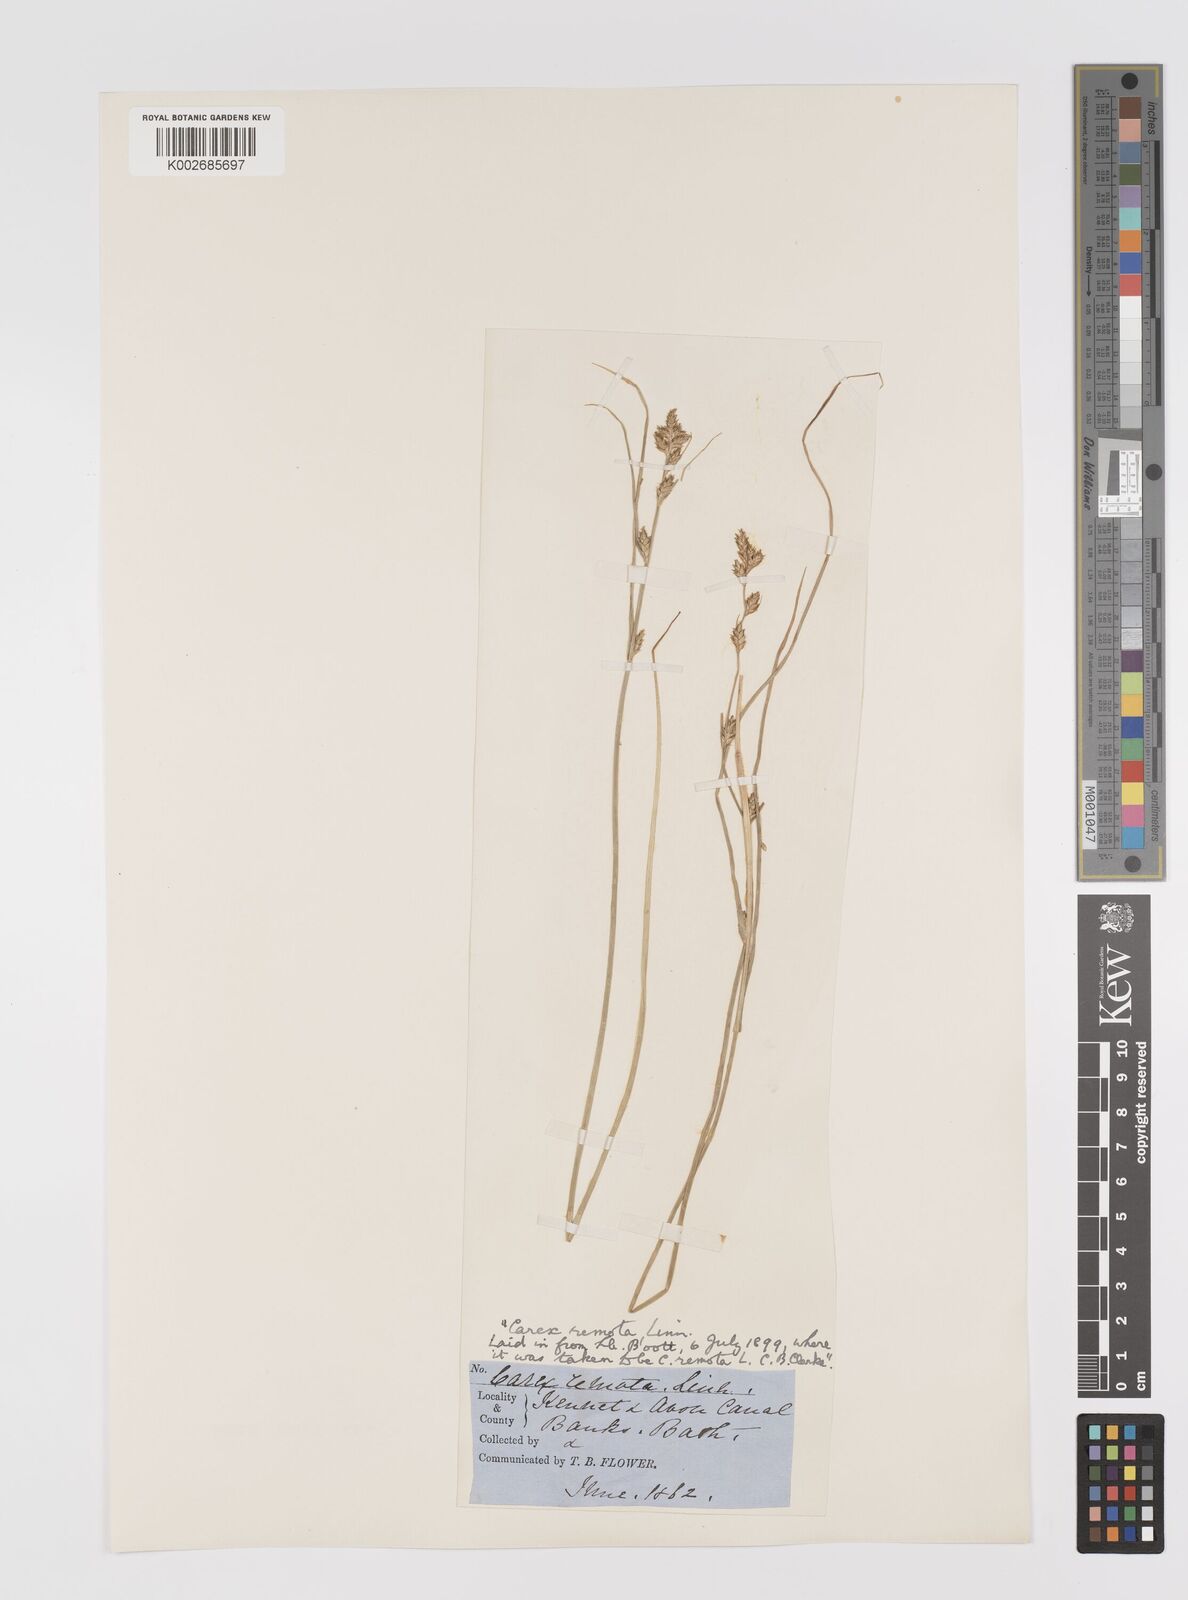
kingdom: Plantae
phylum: Tracheophyta
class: Liliopsida
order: Poales
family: Cyperaceae
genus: Carex
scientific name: Carex remota
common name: Remote sedge
